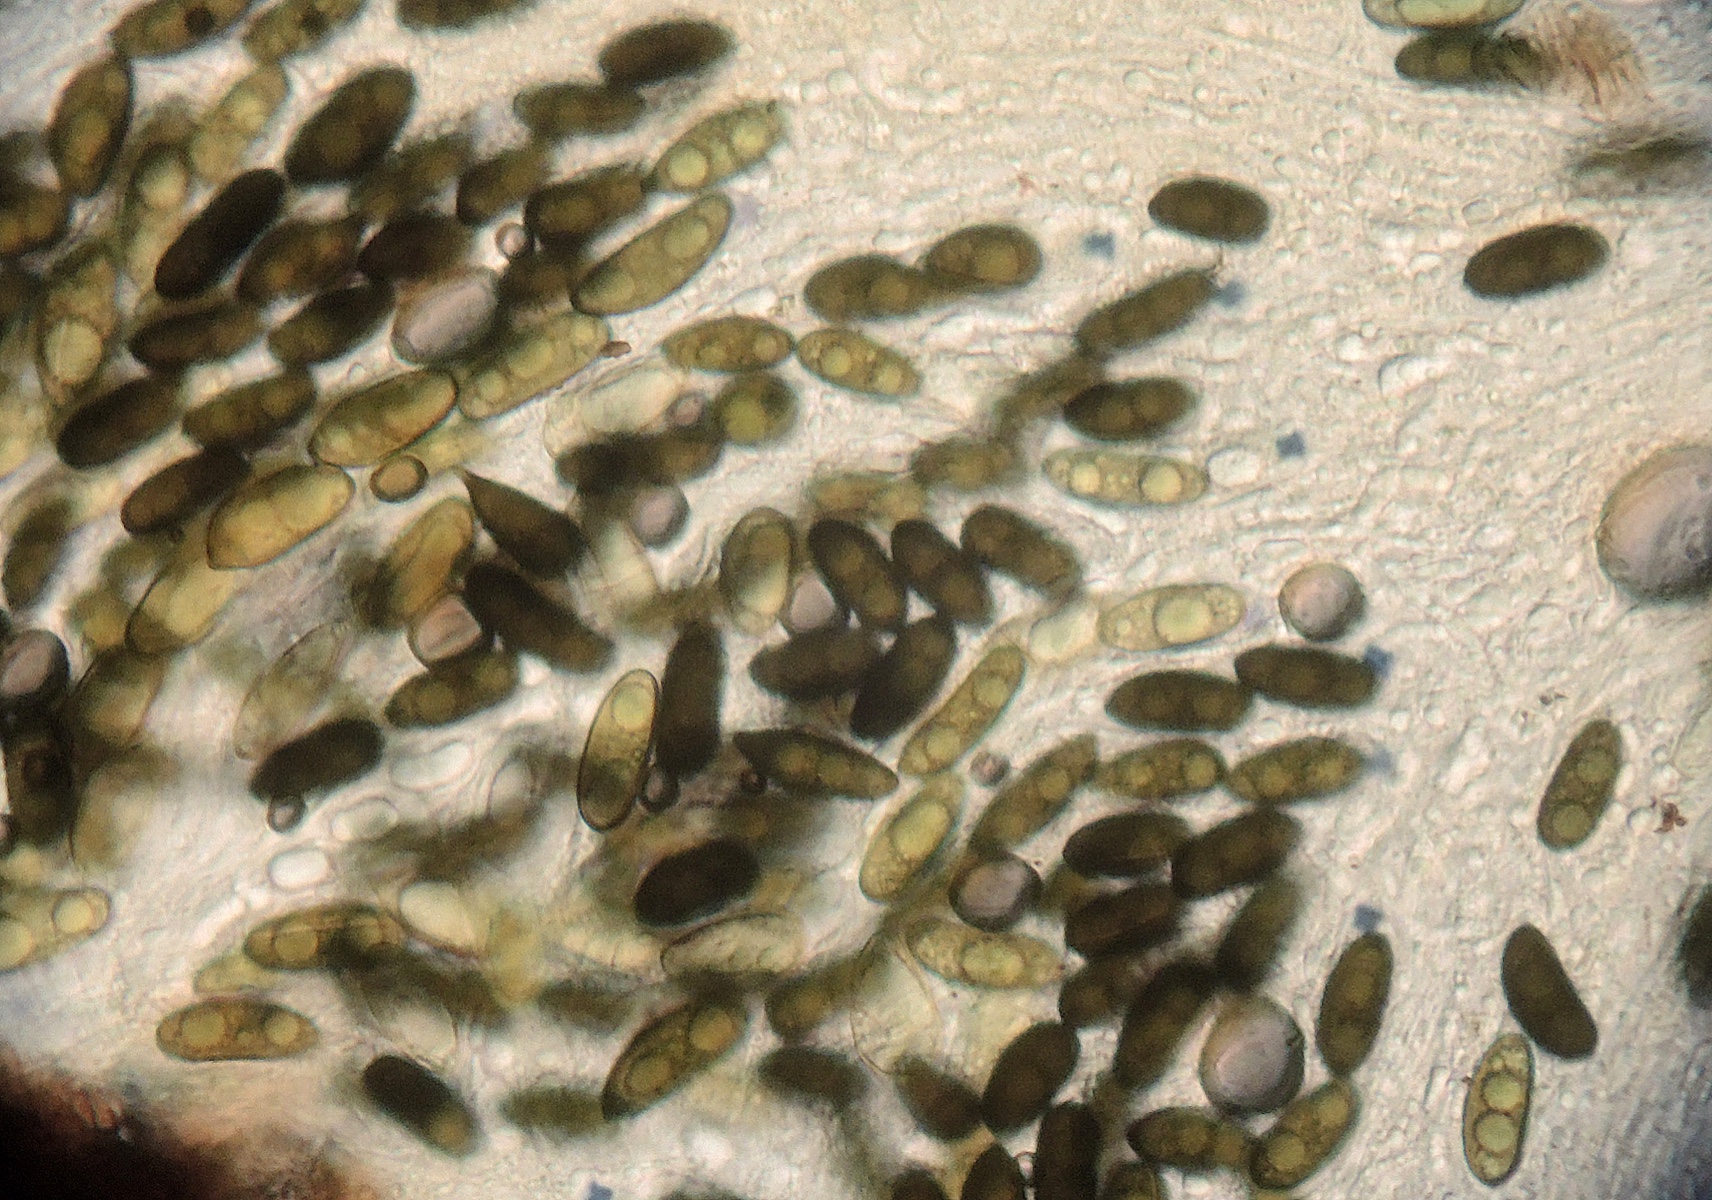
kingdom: Fungi
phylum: Ascomycota
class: Sordariomycetes
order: Xylariales
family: Xylariaceae
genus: Entoleuca
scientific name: Entoleuca mammata
